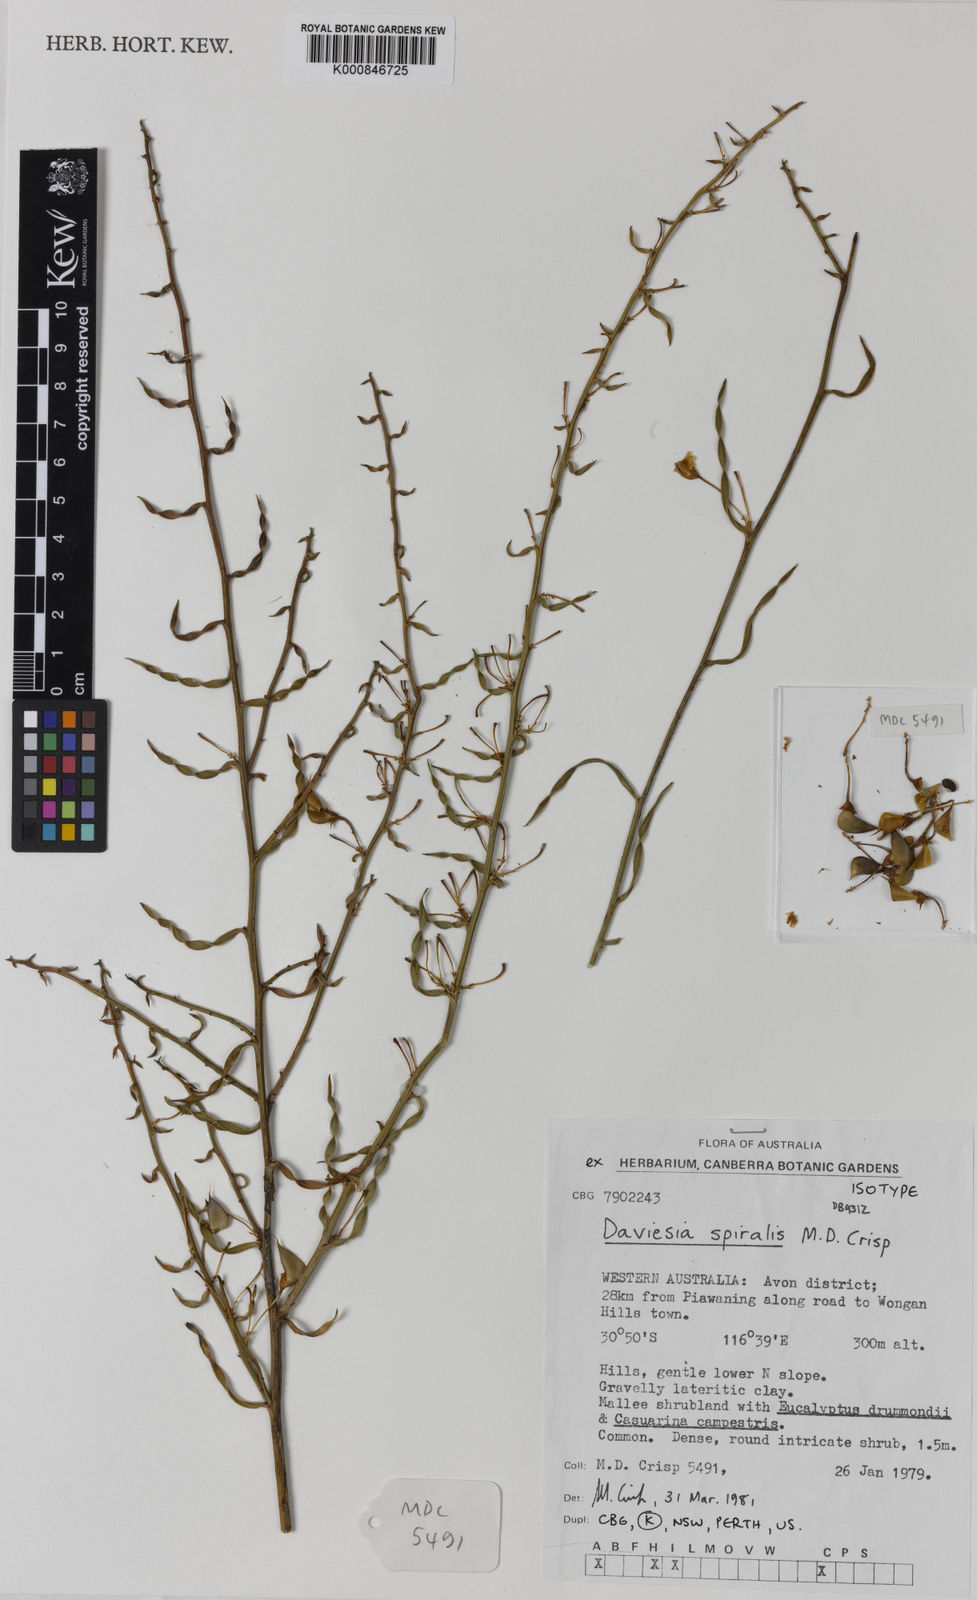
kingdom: Plantae
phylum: Tracheophyta
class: Magnoliopsida
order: Fabales
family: Fabaceae
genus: Daviesia
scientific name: Daviesia spiralis
